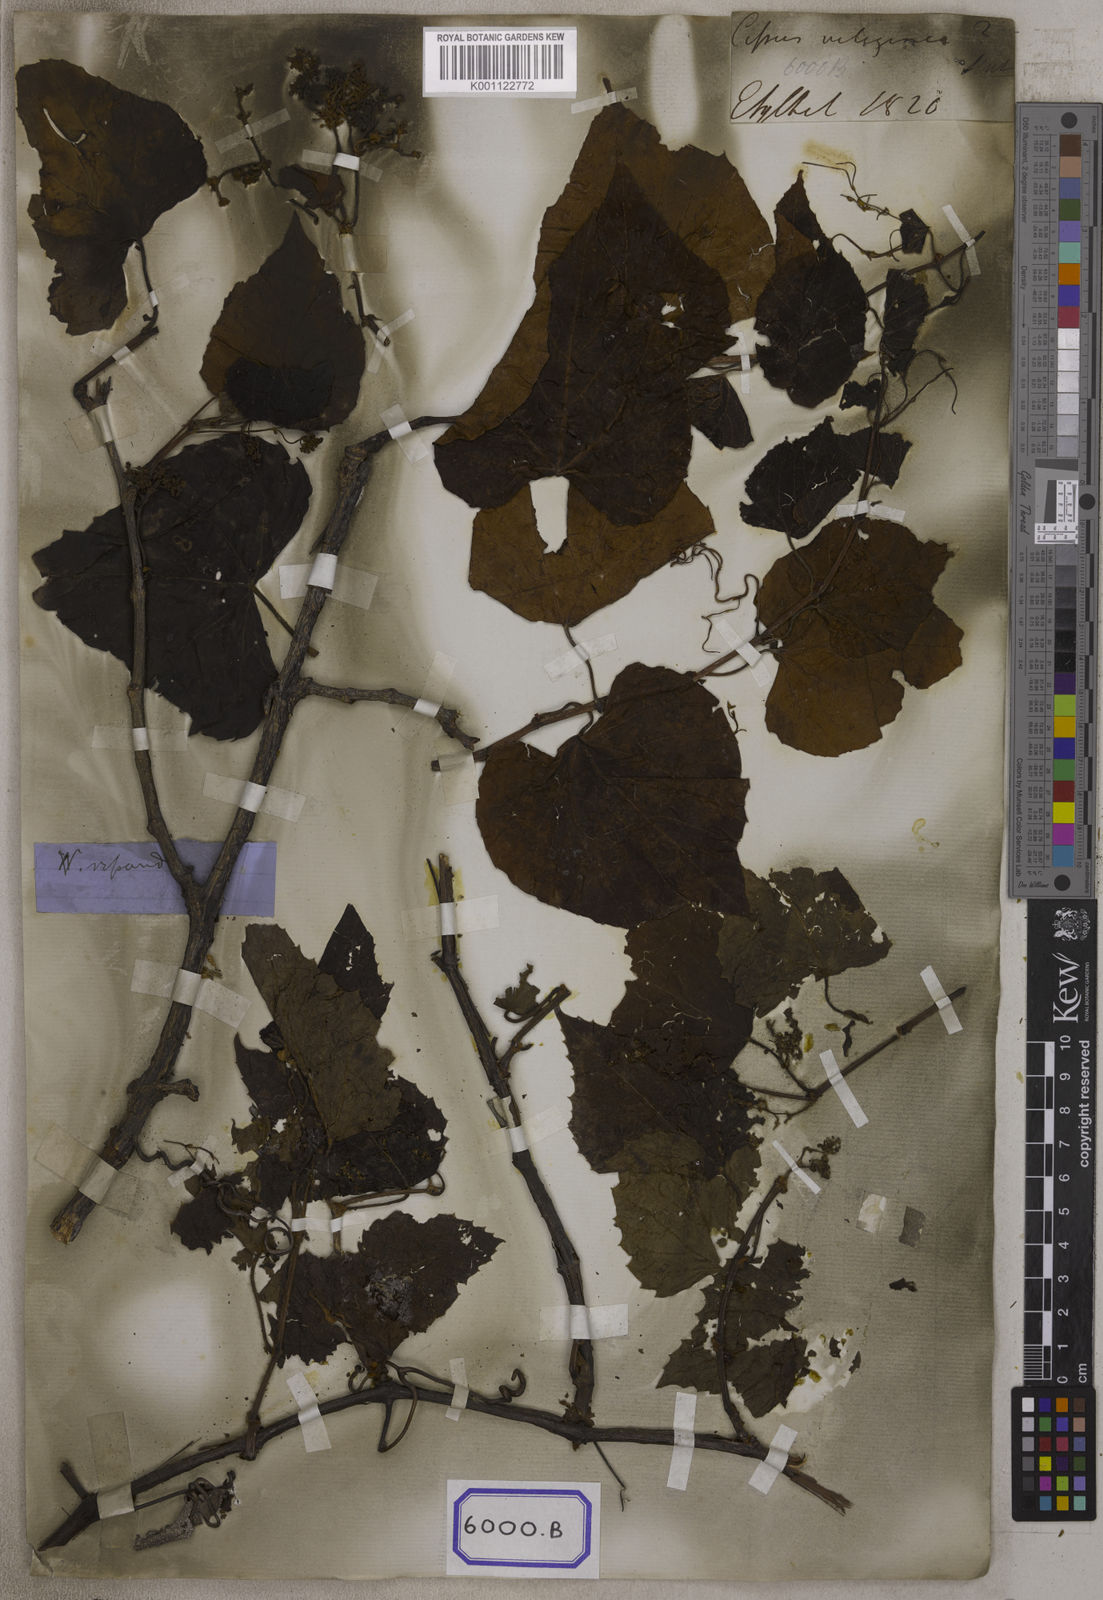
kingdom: Plantae
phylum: Tracheophyta
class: Magnoliopsida
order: Vitales
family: Vitaceae
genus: Cissus
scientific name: Cissus repanda
